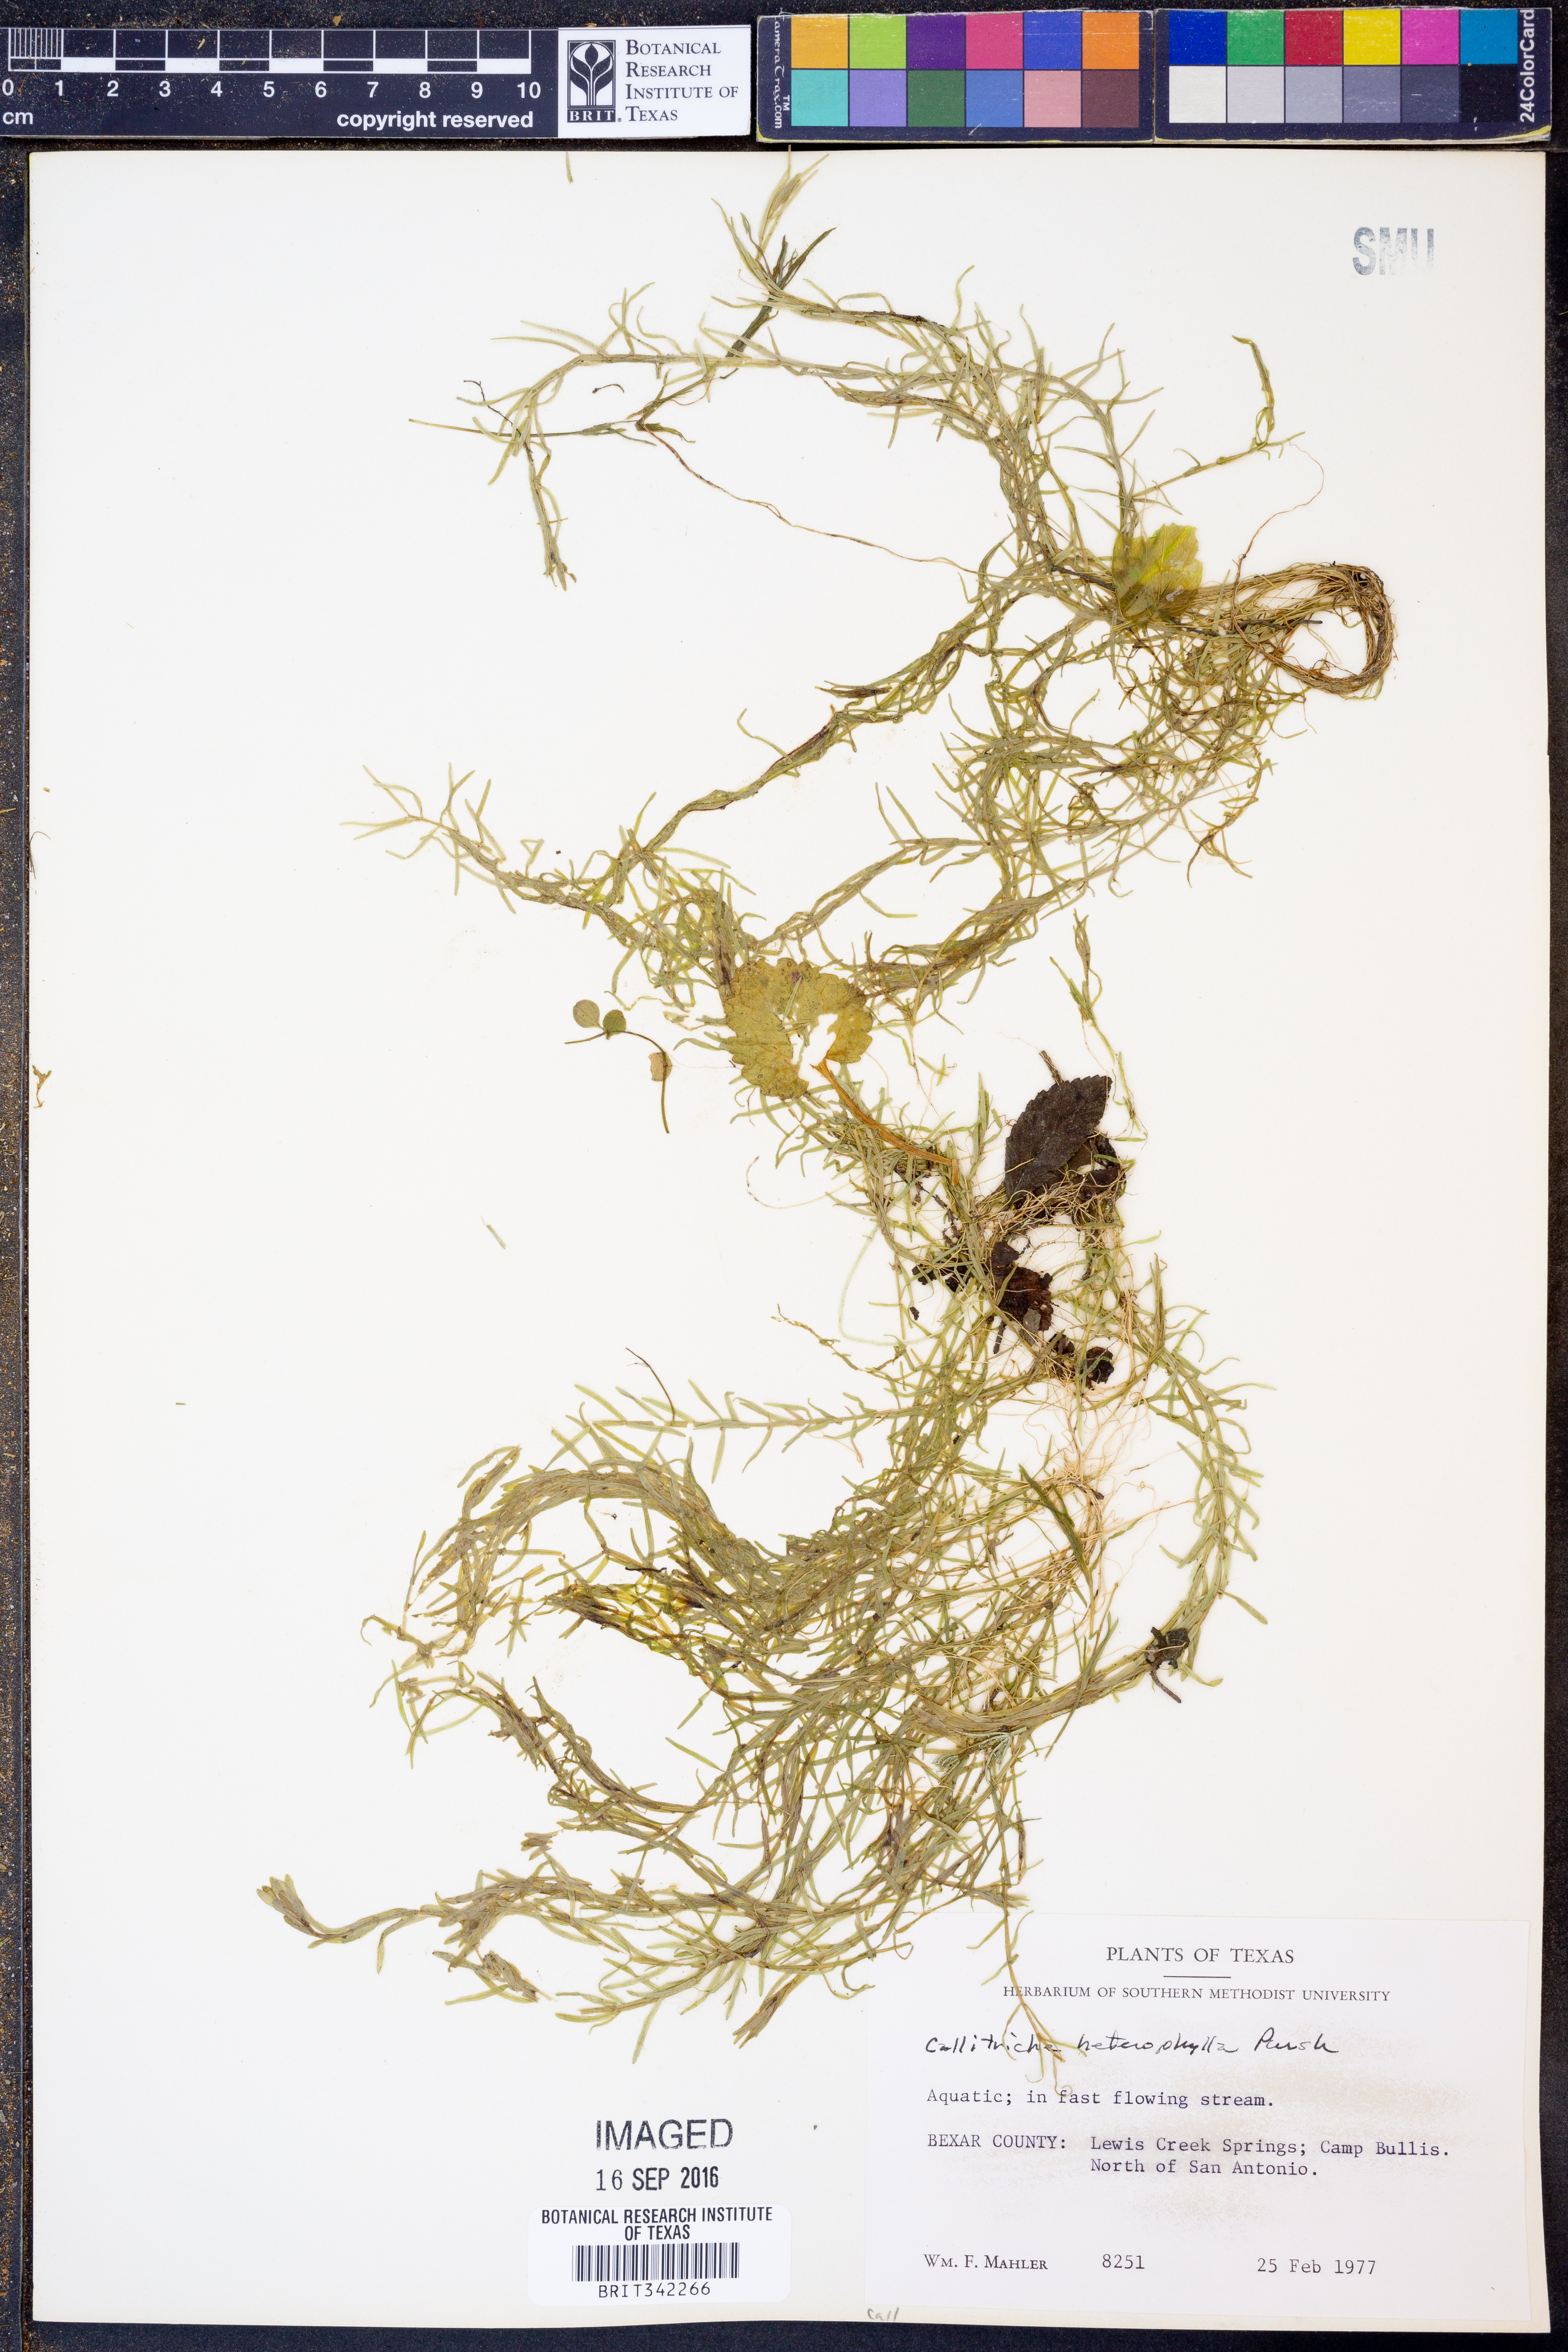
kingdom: Plantae
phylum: Tracheophyta
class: Magnoliopsida
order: Lamiales
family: Plantaginaceae
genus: Callitriche
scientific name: Callitriche heterophylla
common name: Two-headed water-starwort
